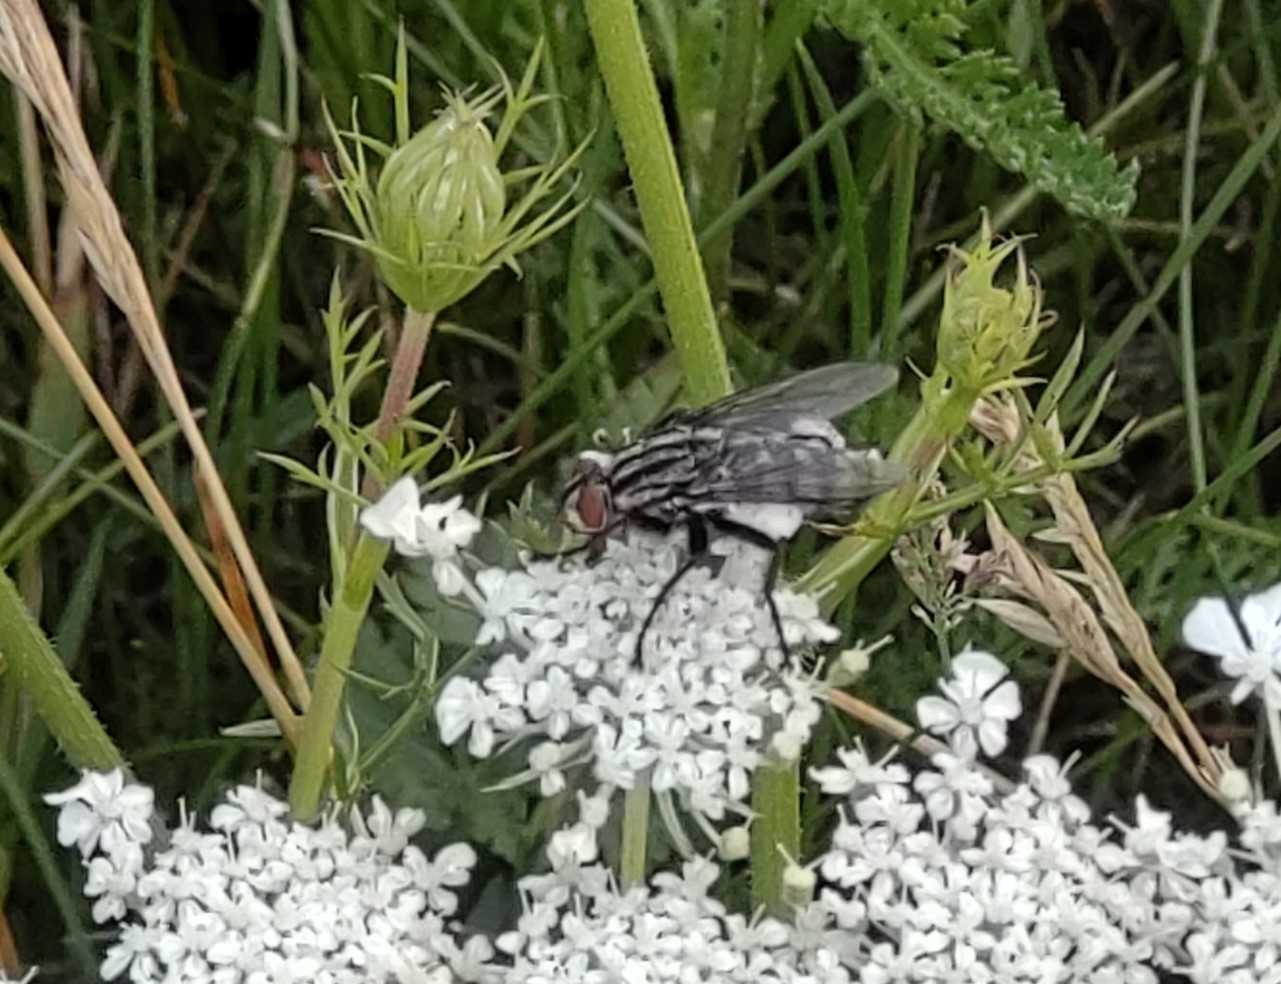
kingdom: Animalia
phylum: Arthropoda
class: Insecta
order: Diptera
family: Sarcophagidae
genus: Sarcophaga
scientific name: Sarcophaga variegata
